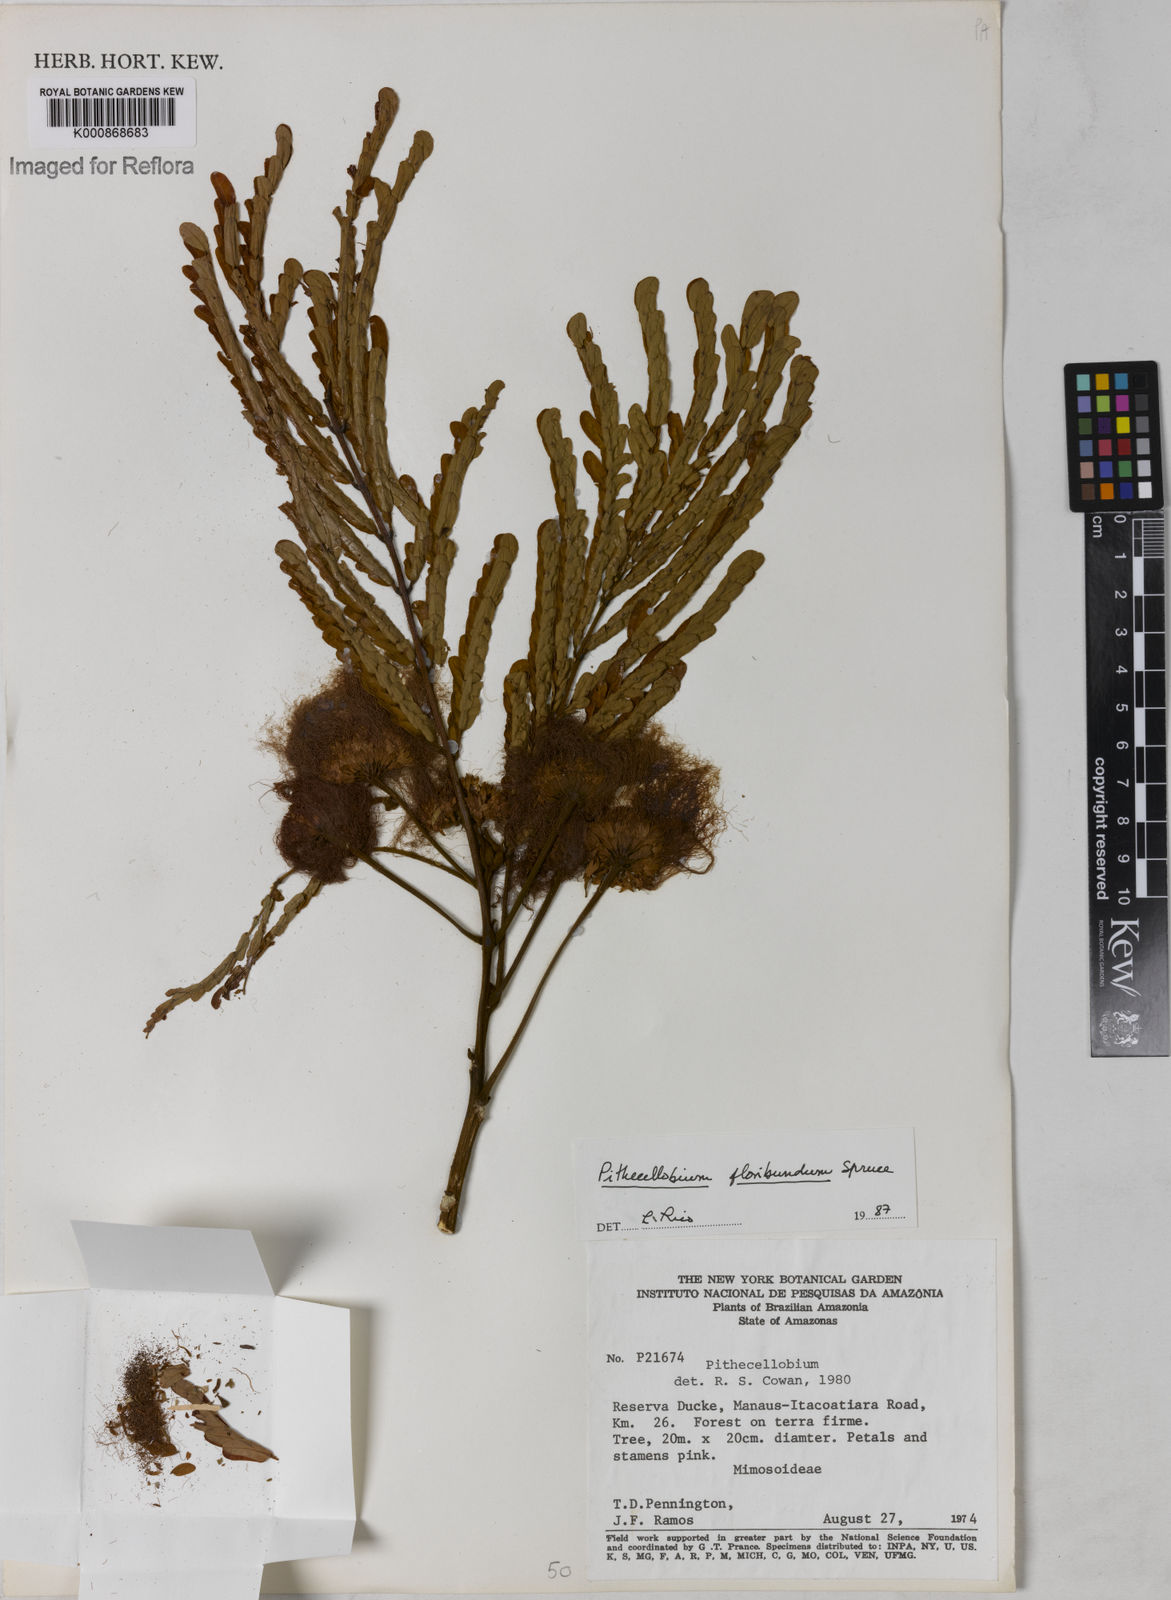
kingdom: Plantae
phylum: Tracheophyta
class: Magnoliopsida
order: Fabales
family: Fabaceae
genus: Jupunba
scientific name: Jupunba floribunda
